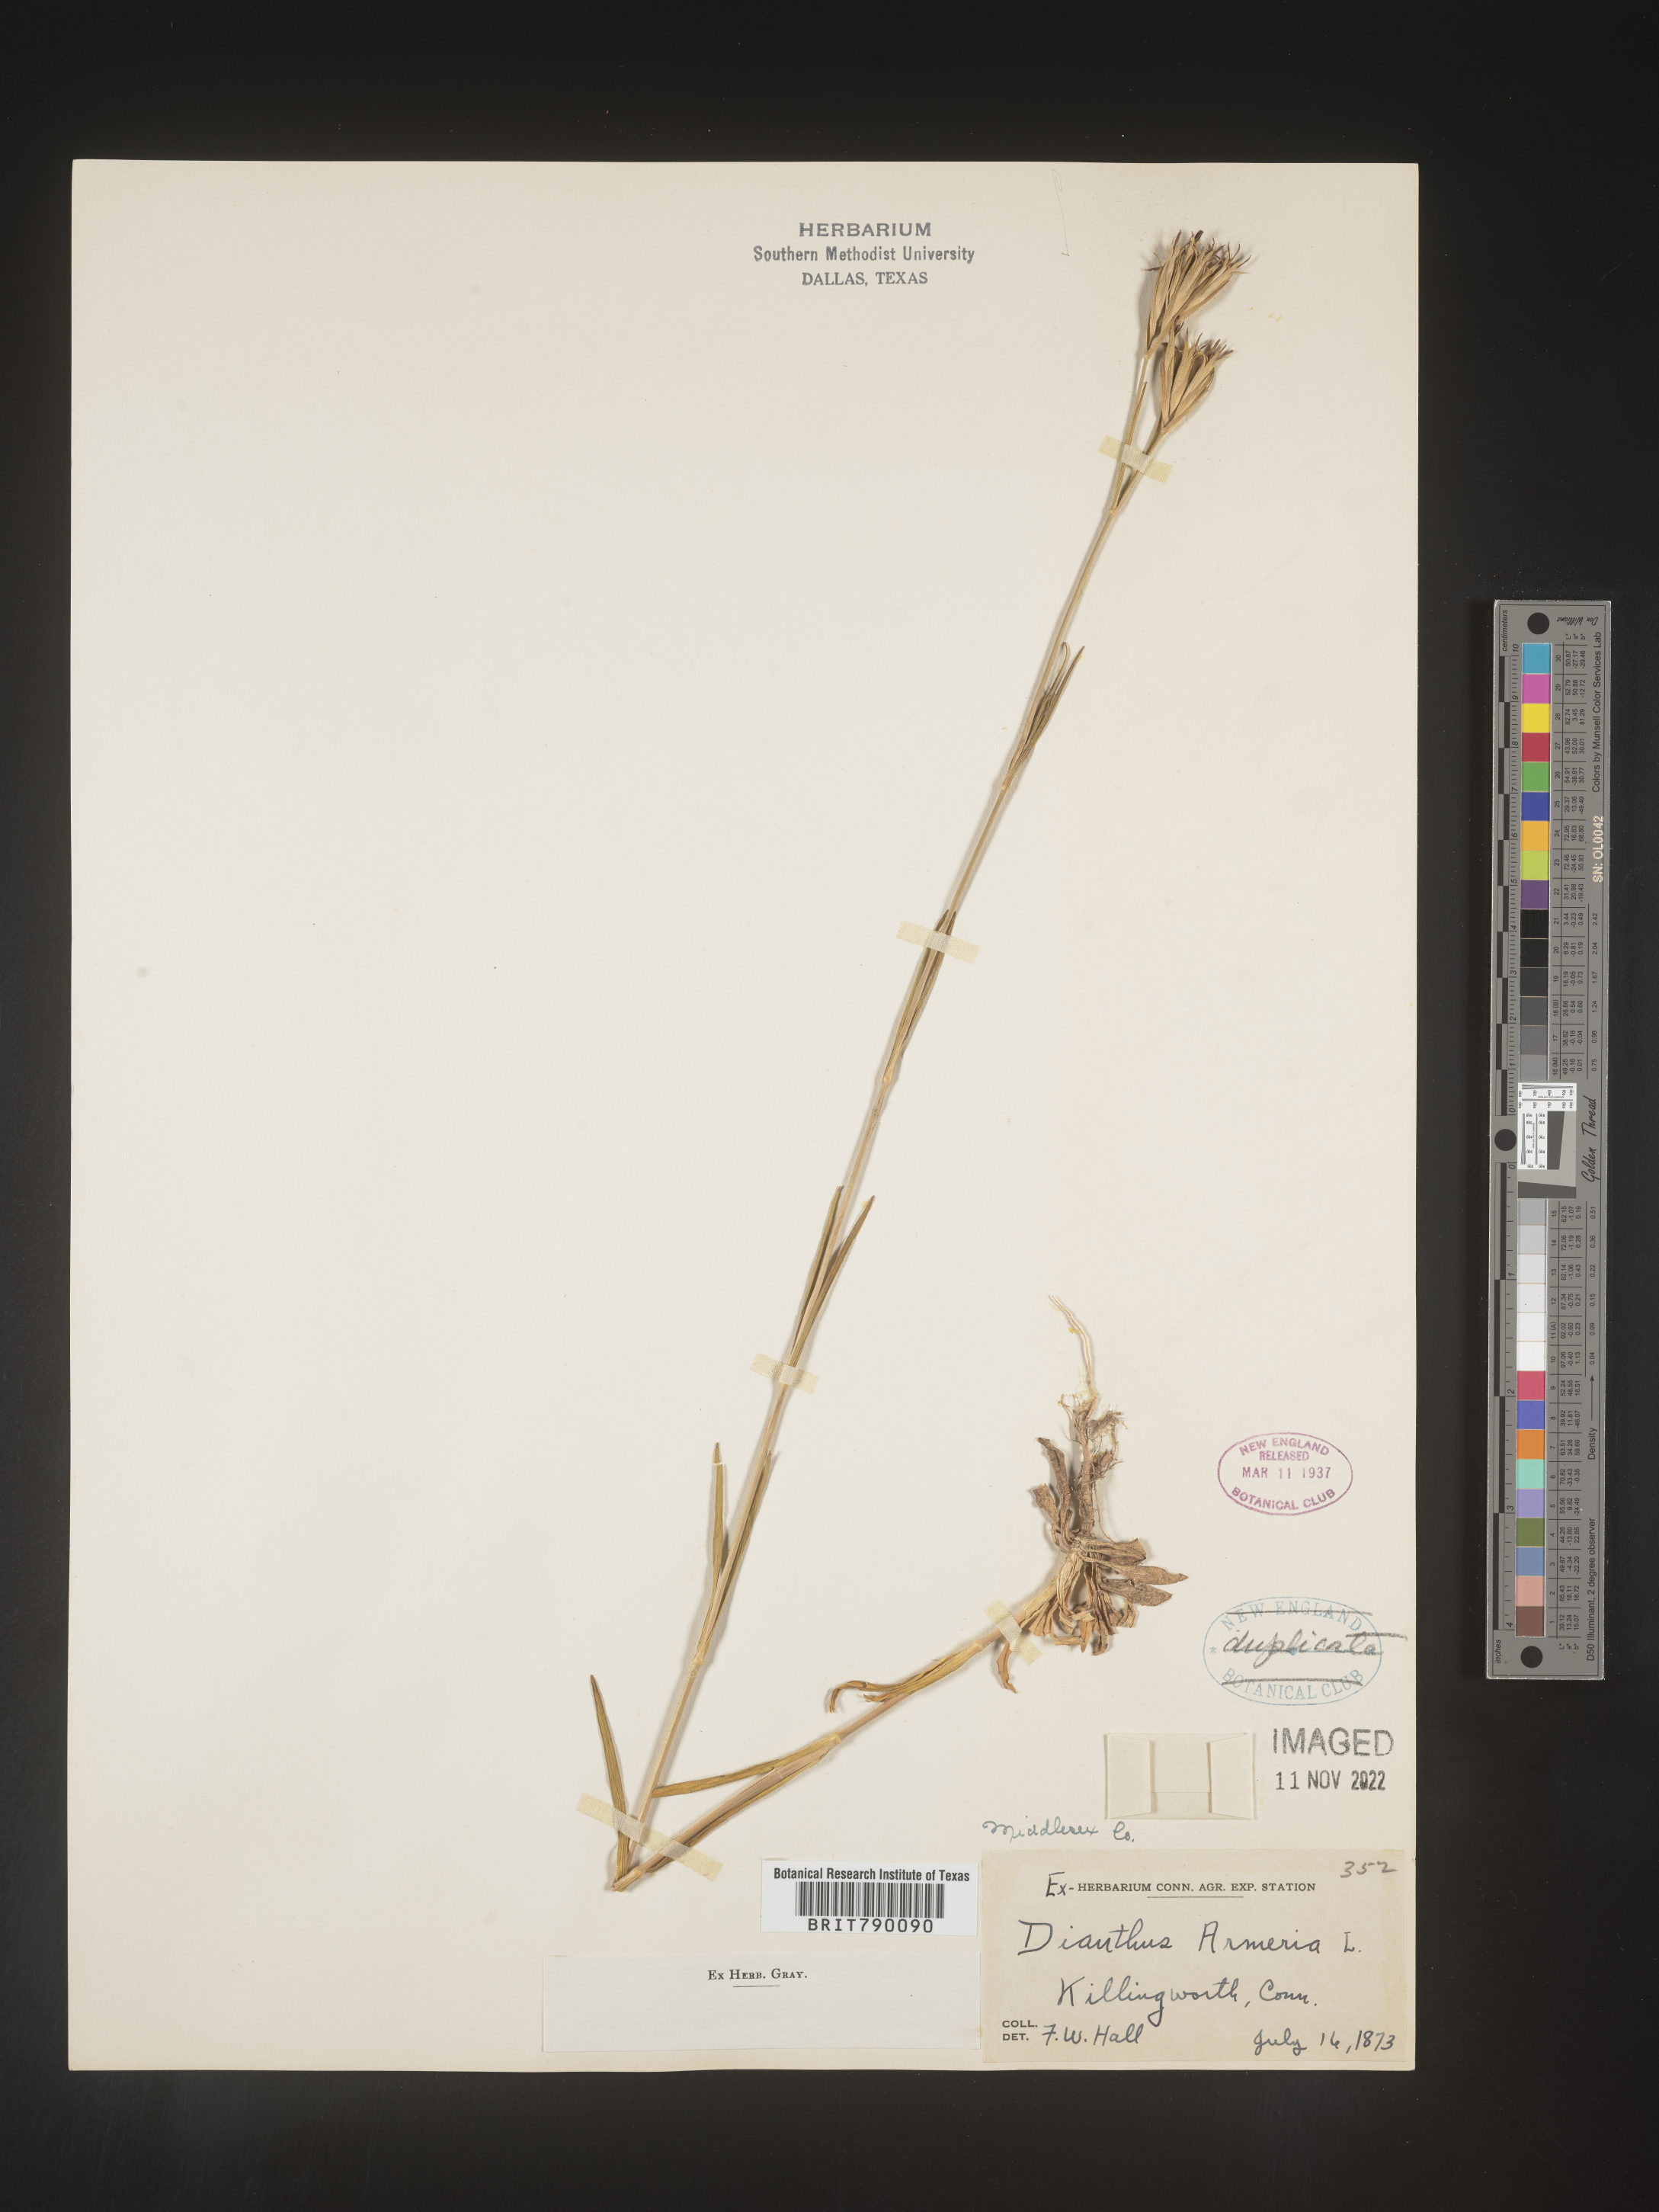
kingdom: Plantae
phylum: Tracheophyta
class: Magnoliopsida
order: Caryophyllales
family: Caryophyllaceae
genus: Dianthus
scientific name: Dianthus armeria
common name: Deptford pink
